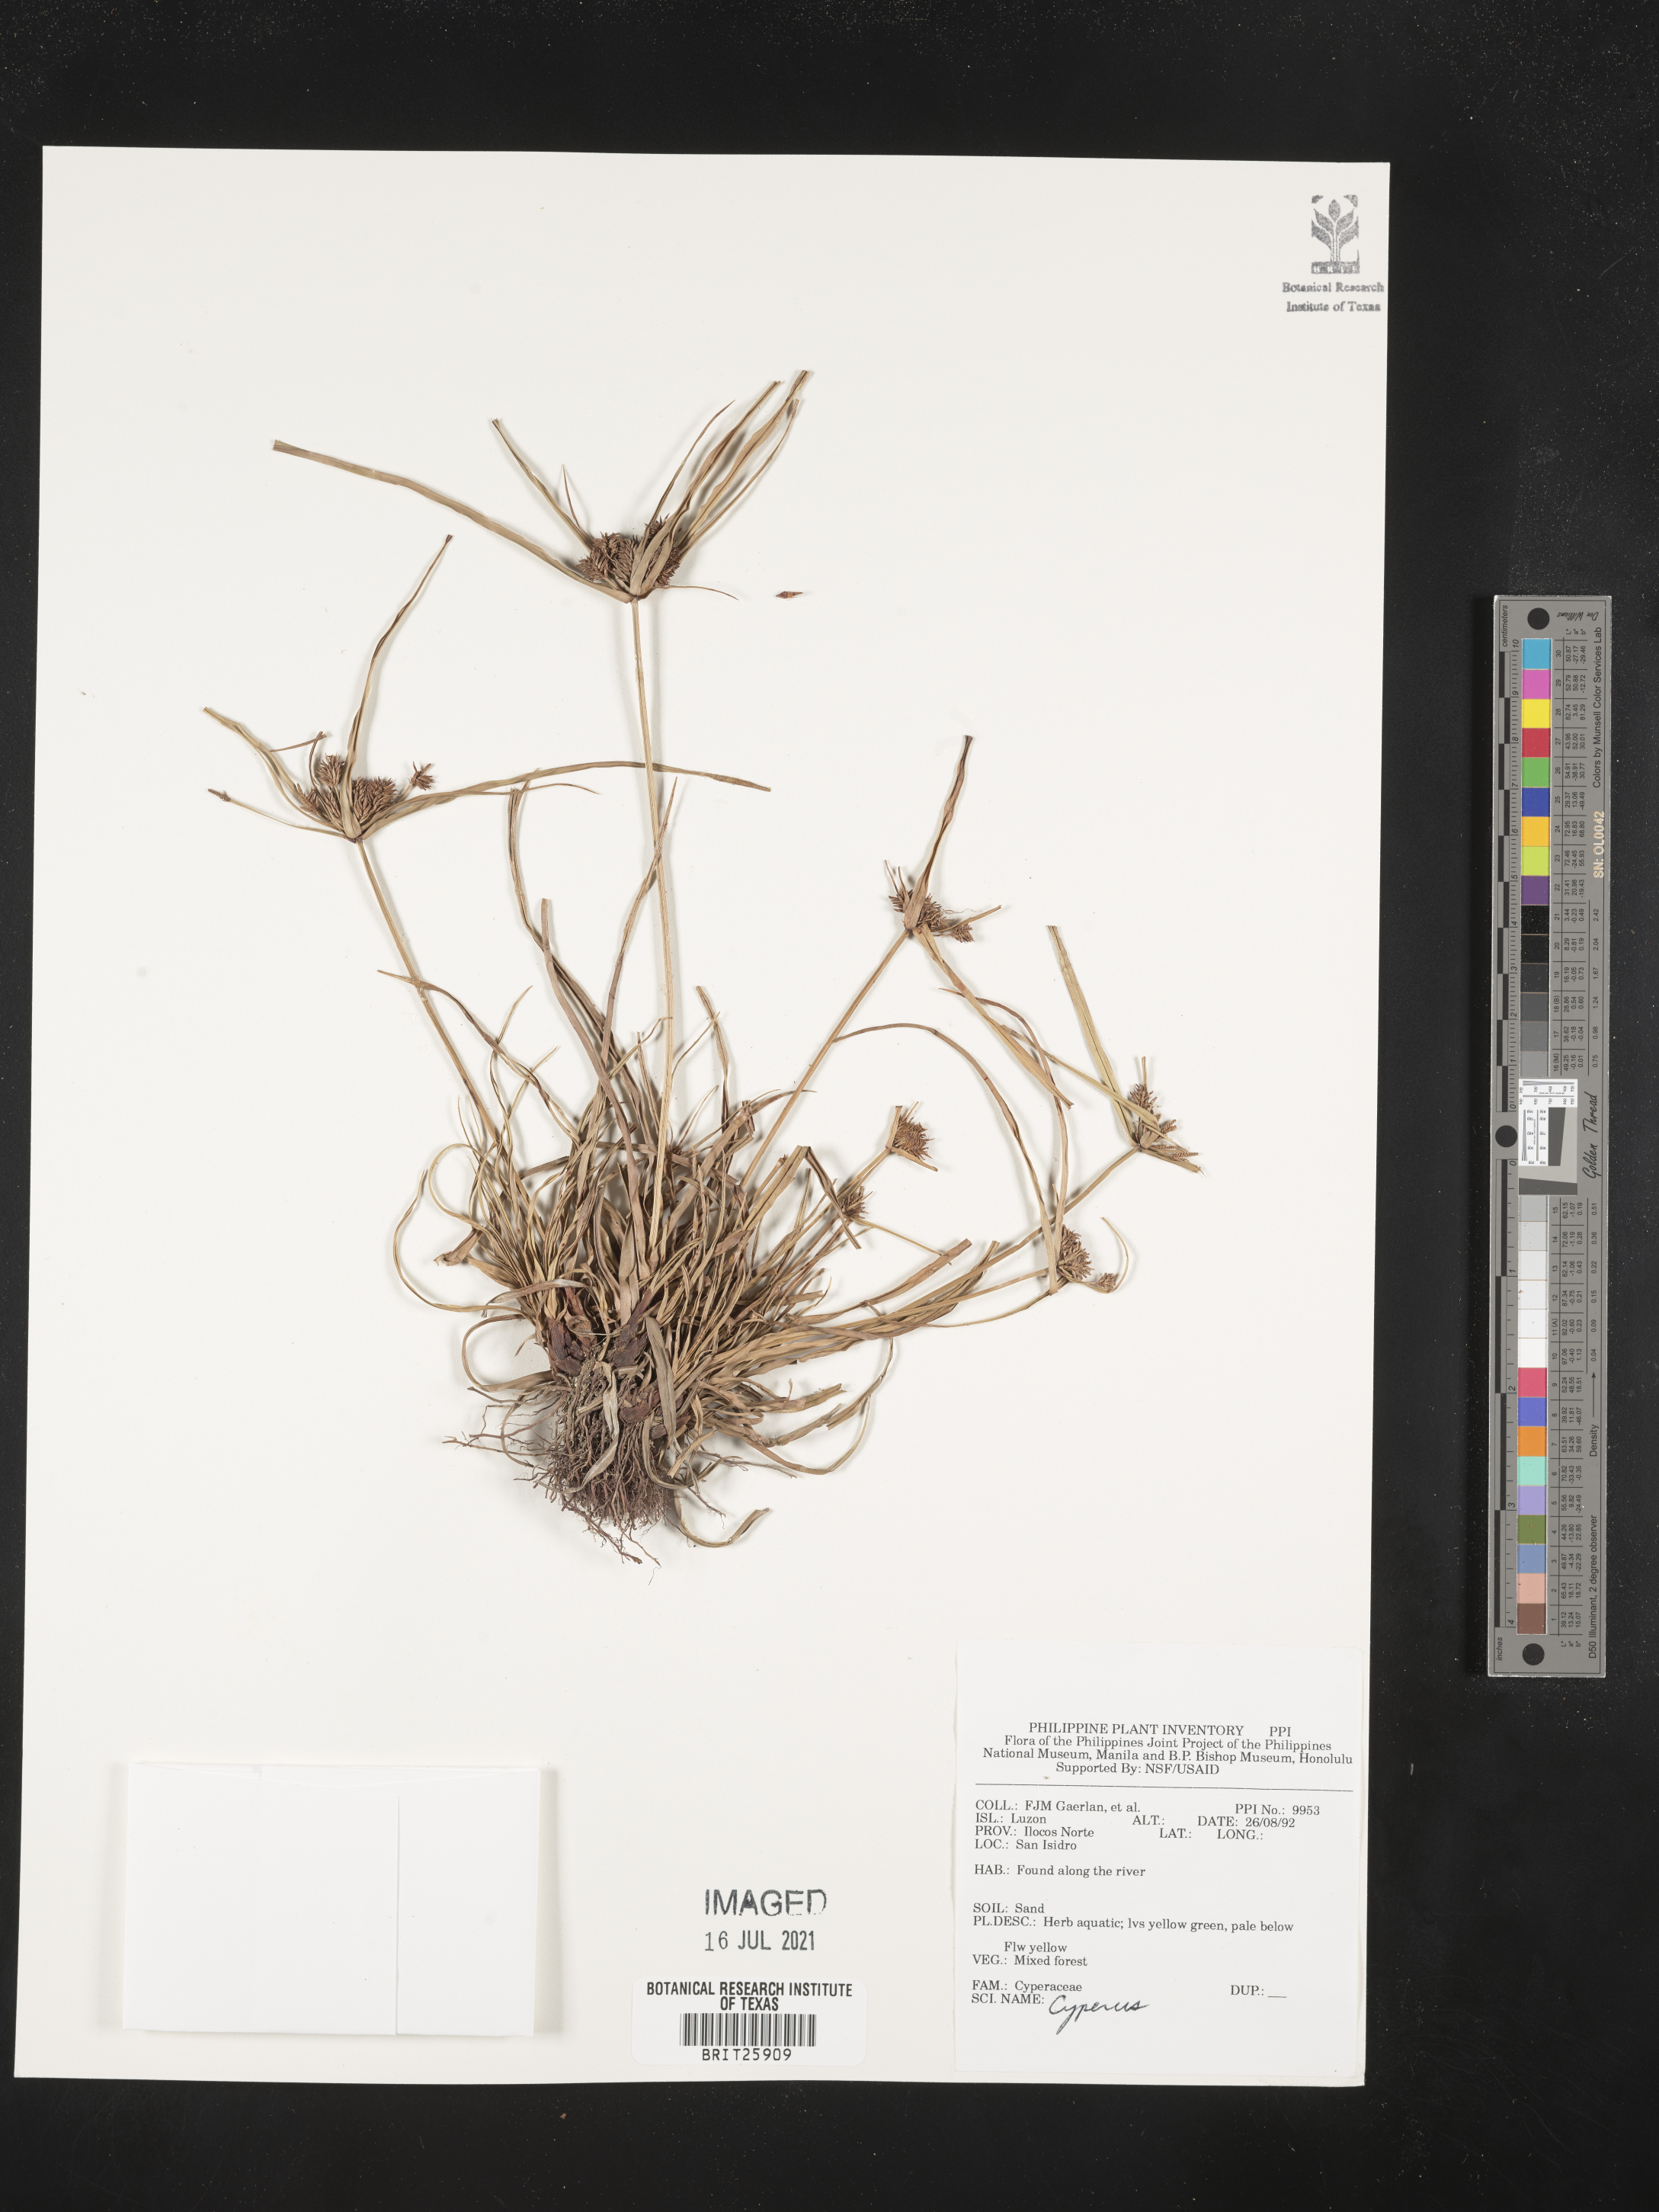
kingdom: Plantae
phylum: Tracheophyta
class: Liliopsida
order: Poales
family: Cyperaceae
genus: Cyperus
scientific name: Cyperus
